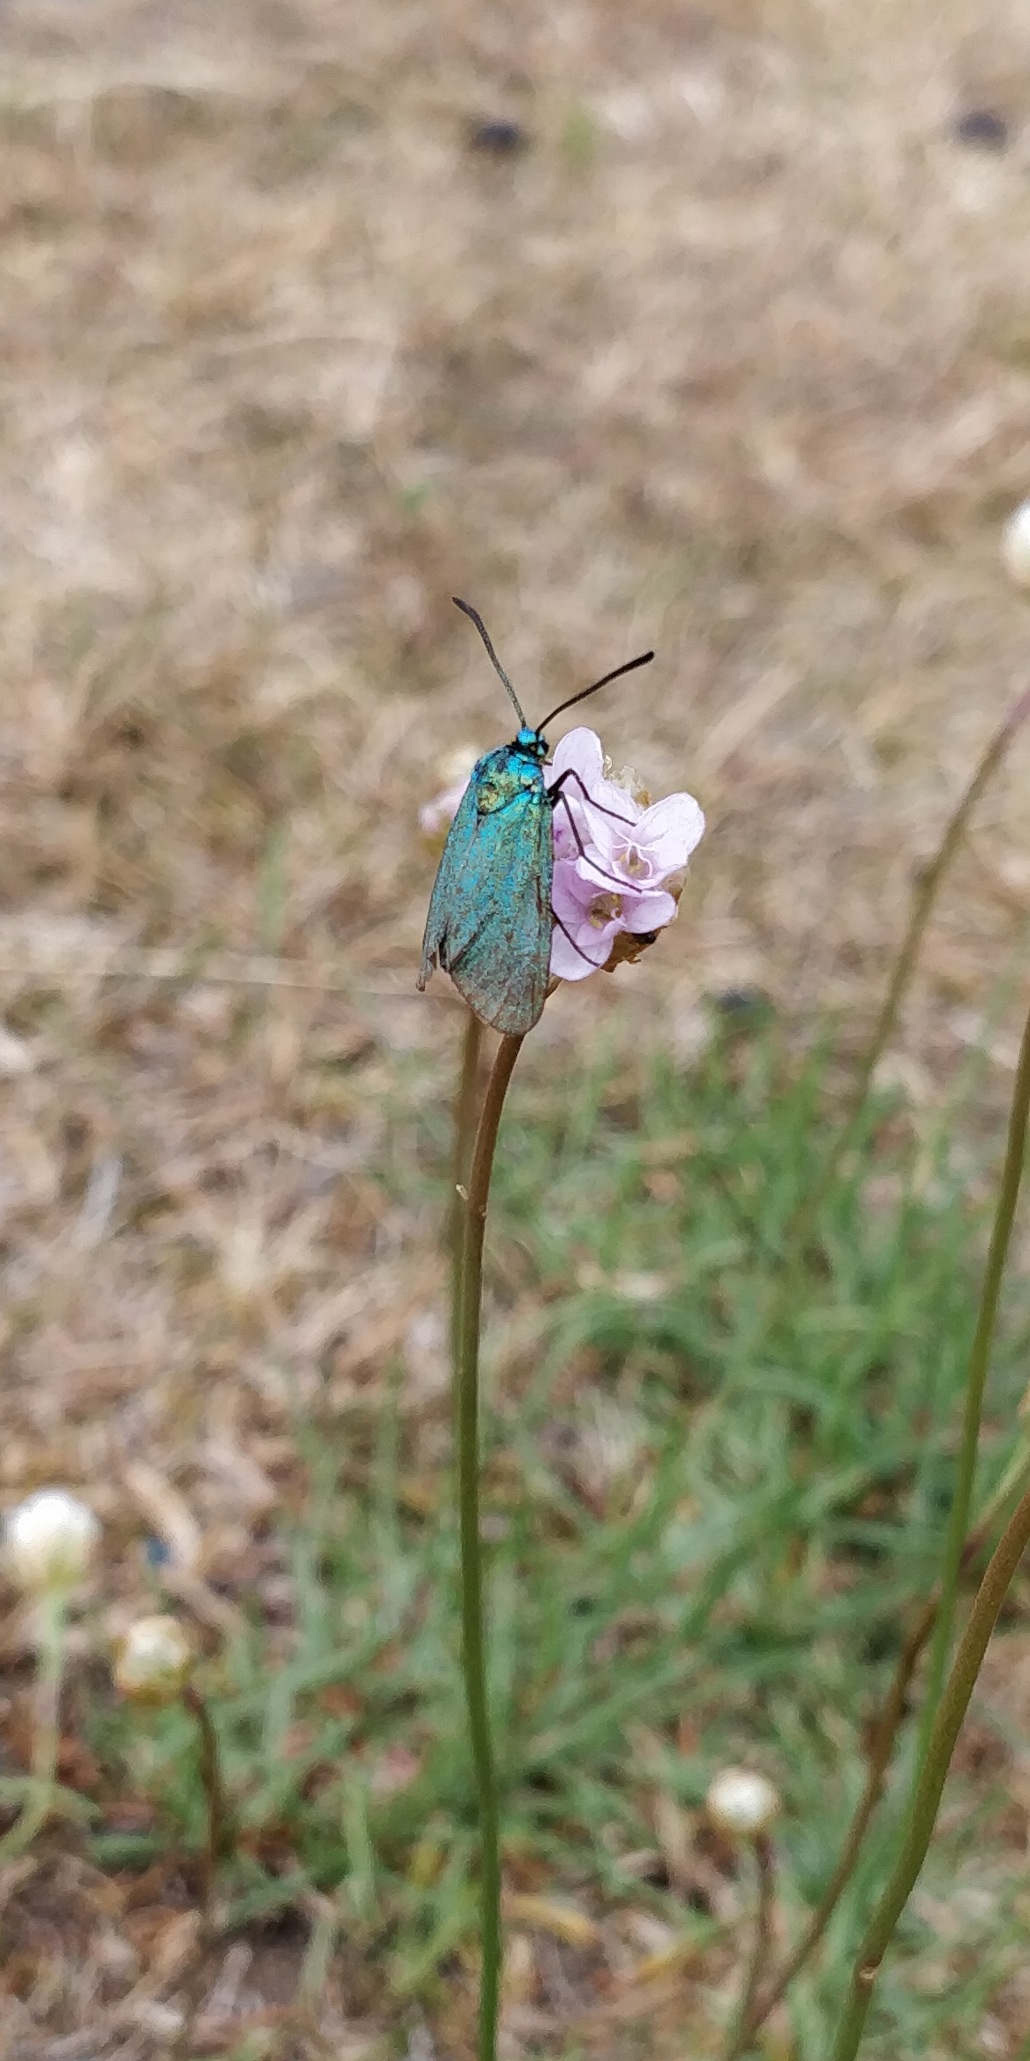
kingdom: Animalia
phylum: Arthropoda
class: Insecta
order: Lepidoptera
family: Zygaenidae
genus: Adscita
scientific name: Adscita statices
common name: Metalvinge
